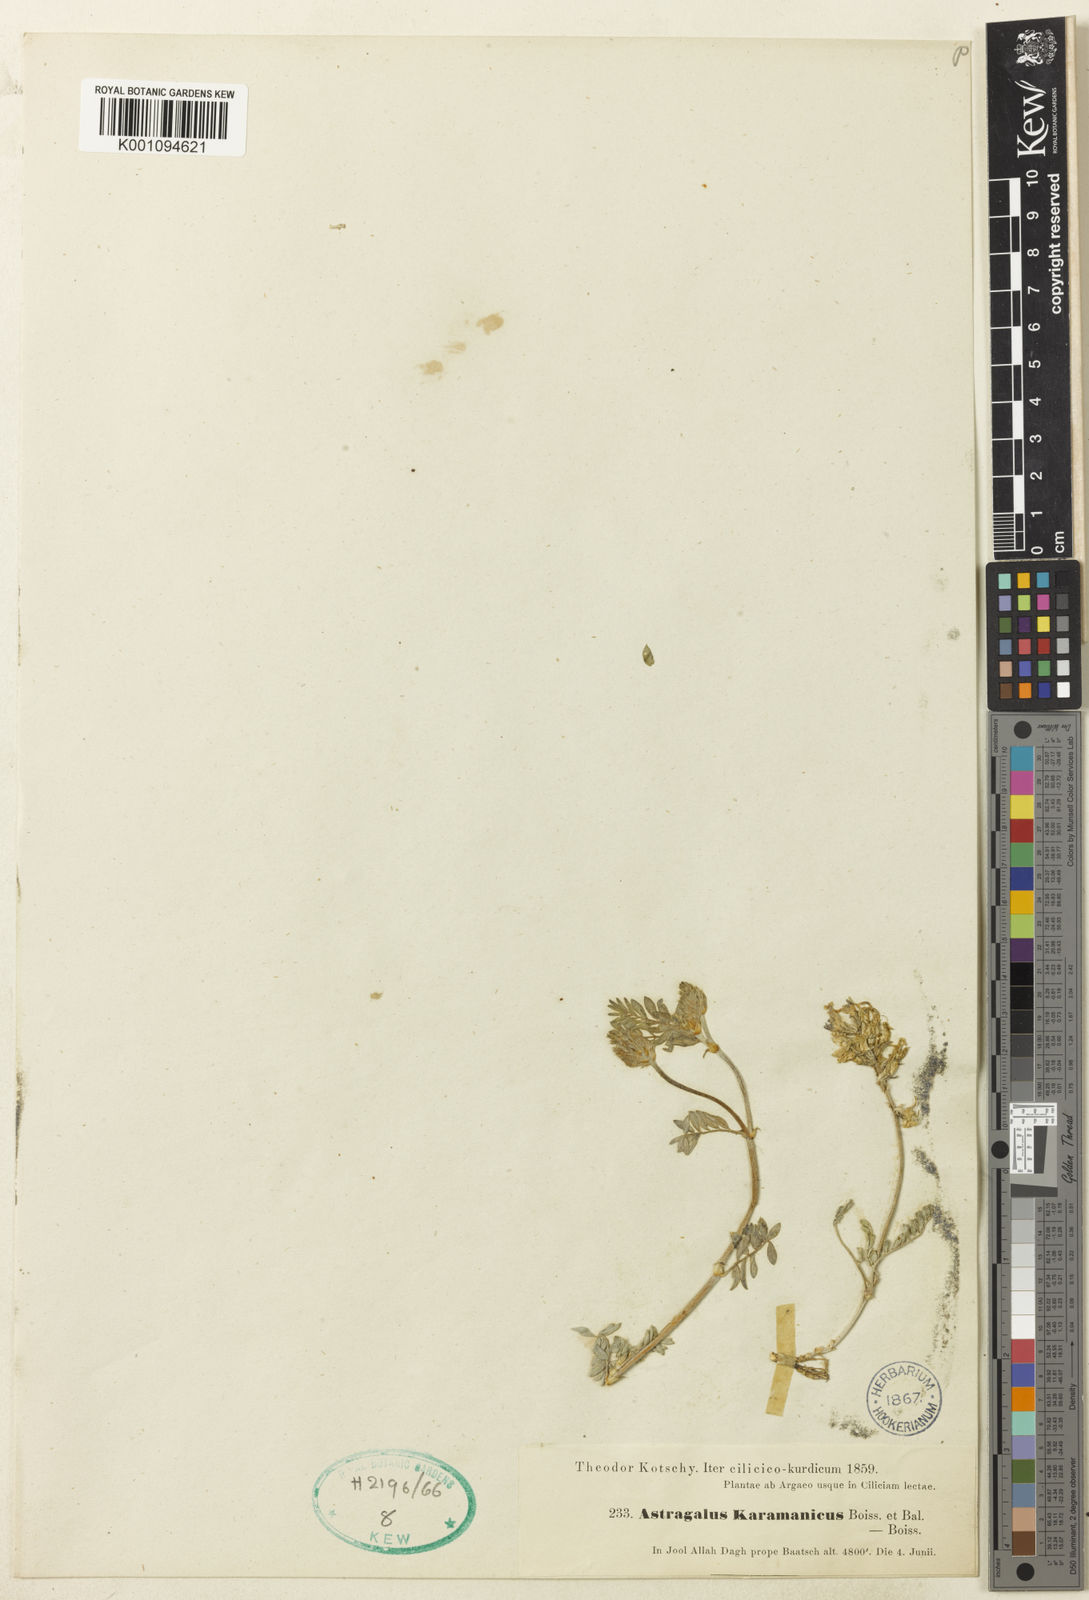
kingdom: Plantae
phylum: Tracheophyta
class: Magnoliopsida
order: Fabales
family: Fabaceae
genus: Astragalus
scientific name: Astragalus
